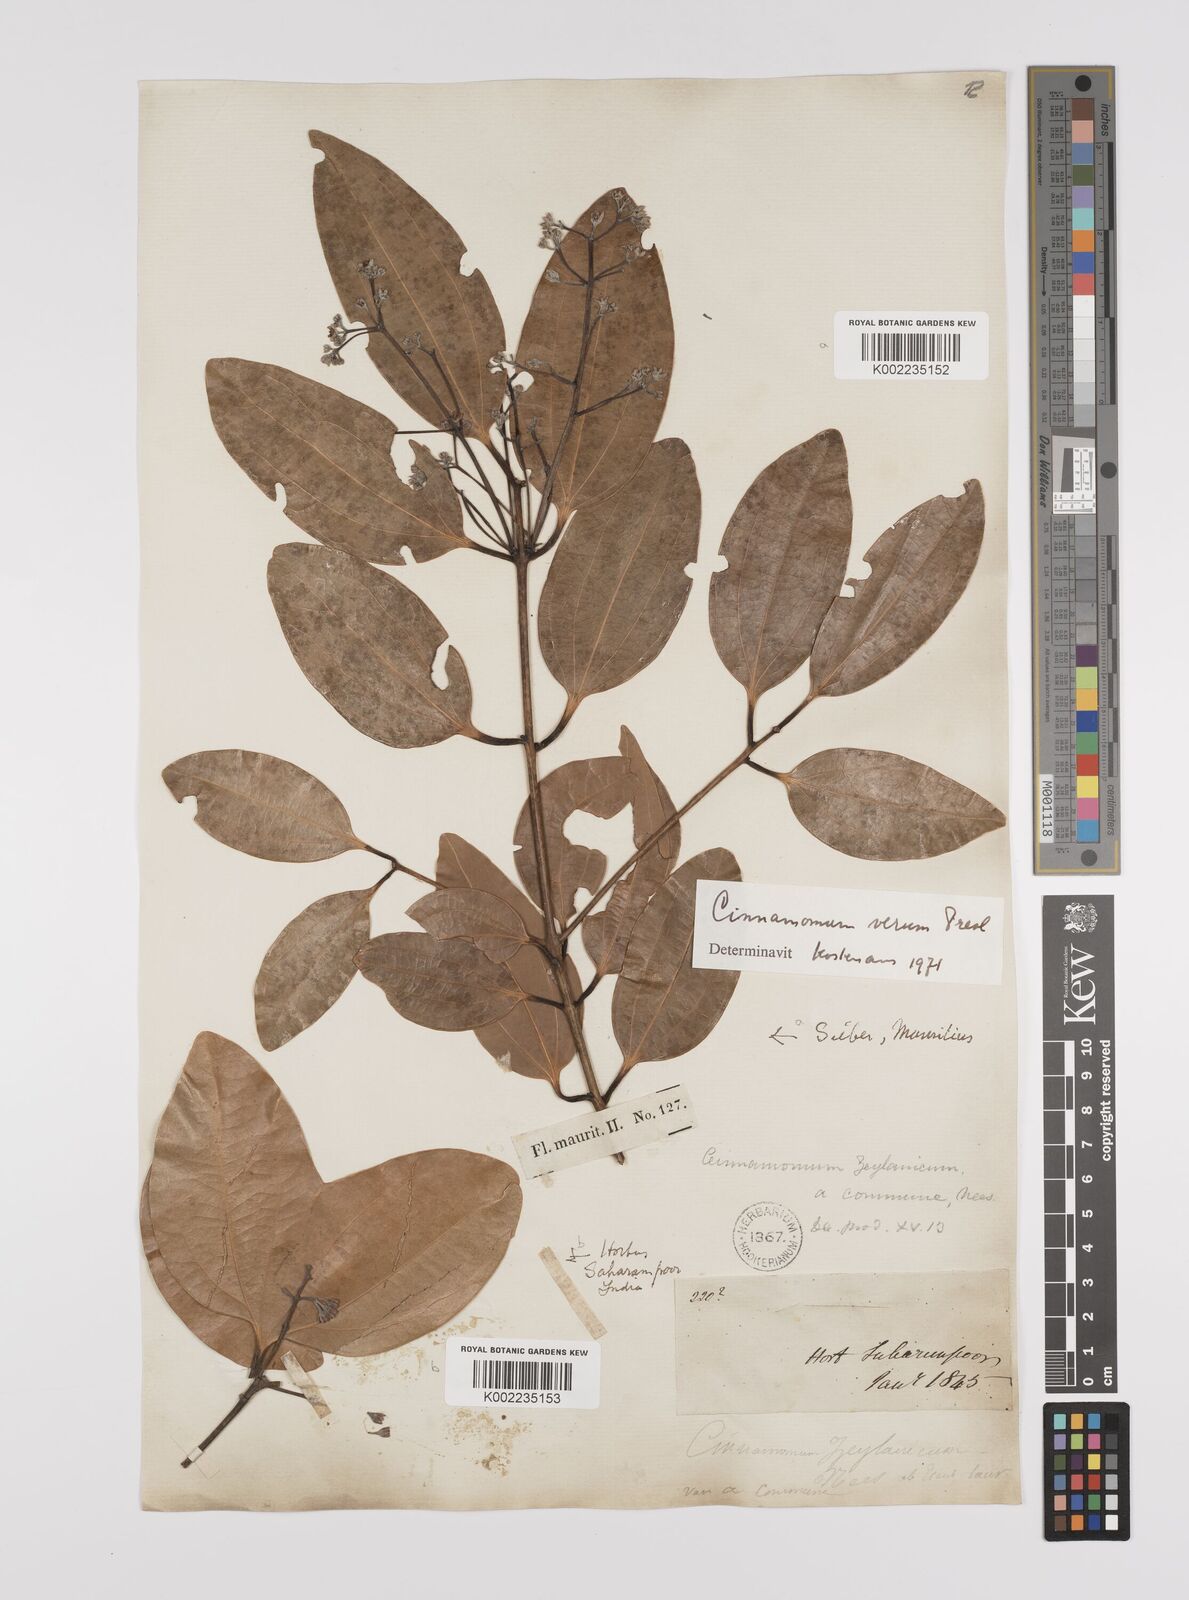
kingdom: Plantae
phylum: Tracheophyta
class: Magnoliopsida
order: Laurales
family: Lauraceae
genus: Cinnamomum
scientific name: Cinnamomum verum
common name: Cinnamon
